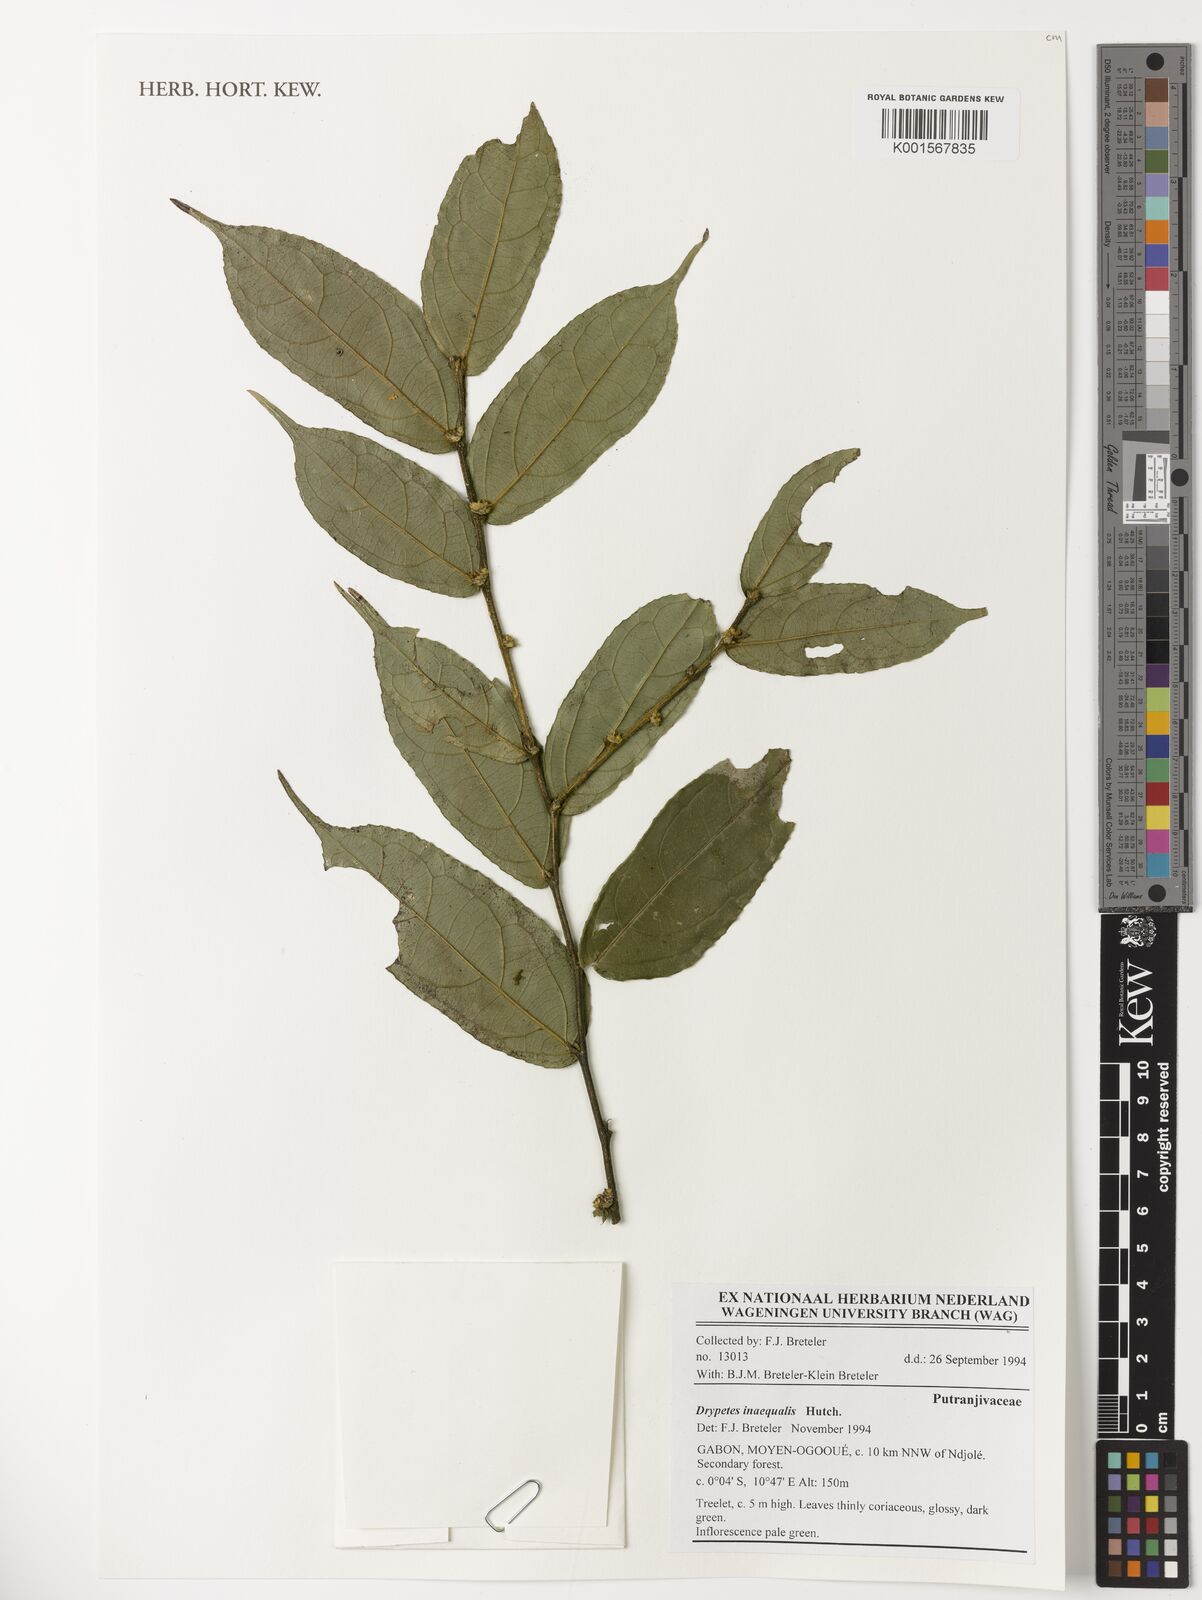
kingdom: Plantae
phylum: Tracheophyta
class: Magnoliopsida
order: Malpighiales
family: Putranjivaceae
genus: Drypetes
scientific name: Drypetes inaequalis
